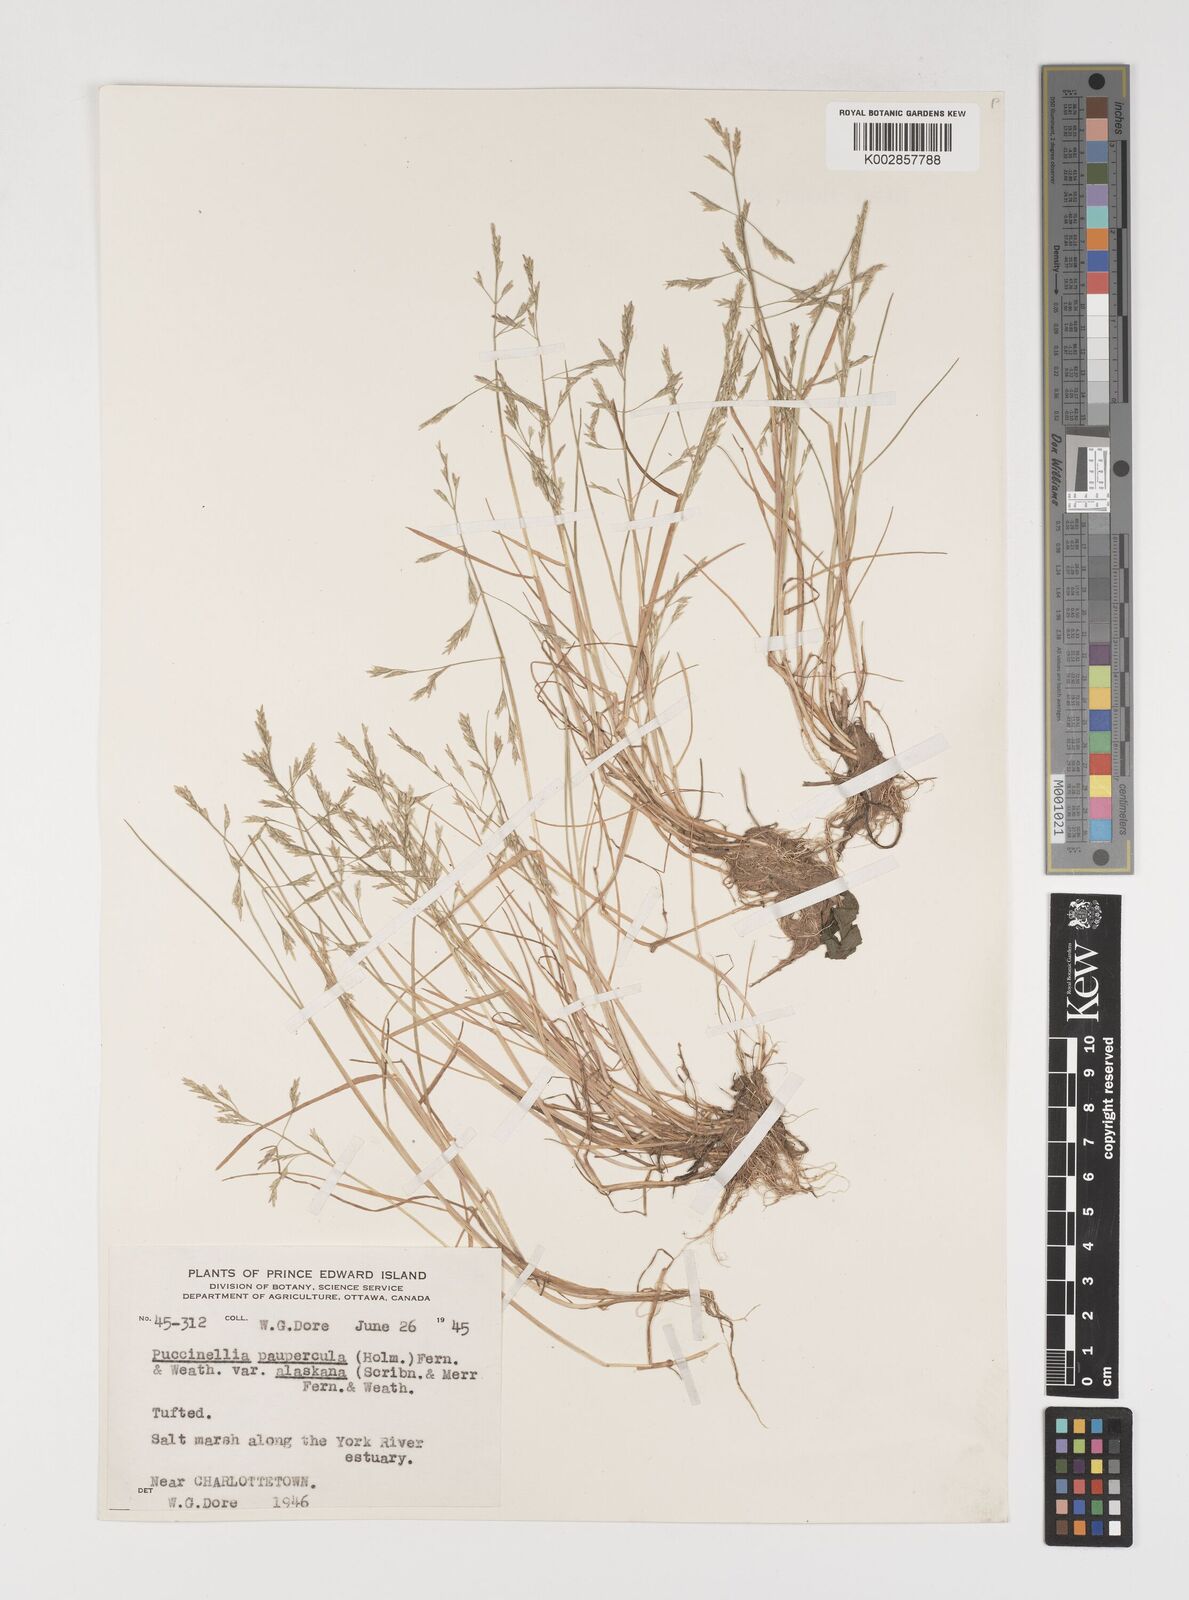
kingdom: Plantae
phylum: Tracheophyta
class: Liliopsida
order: Poales
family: Poaceae
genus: Puccinellia
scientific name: Puccinellia pumila
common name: Dwarf alkaligrass
